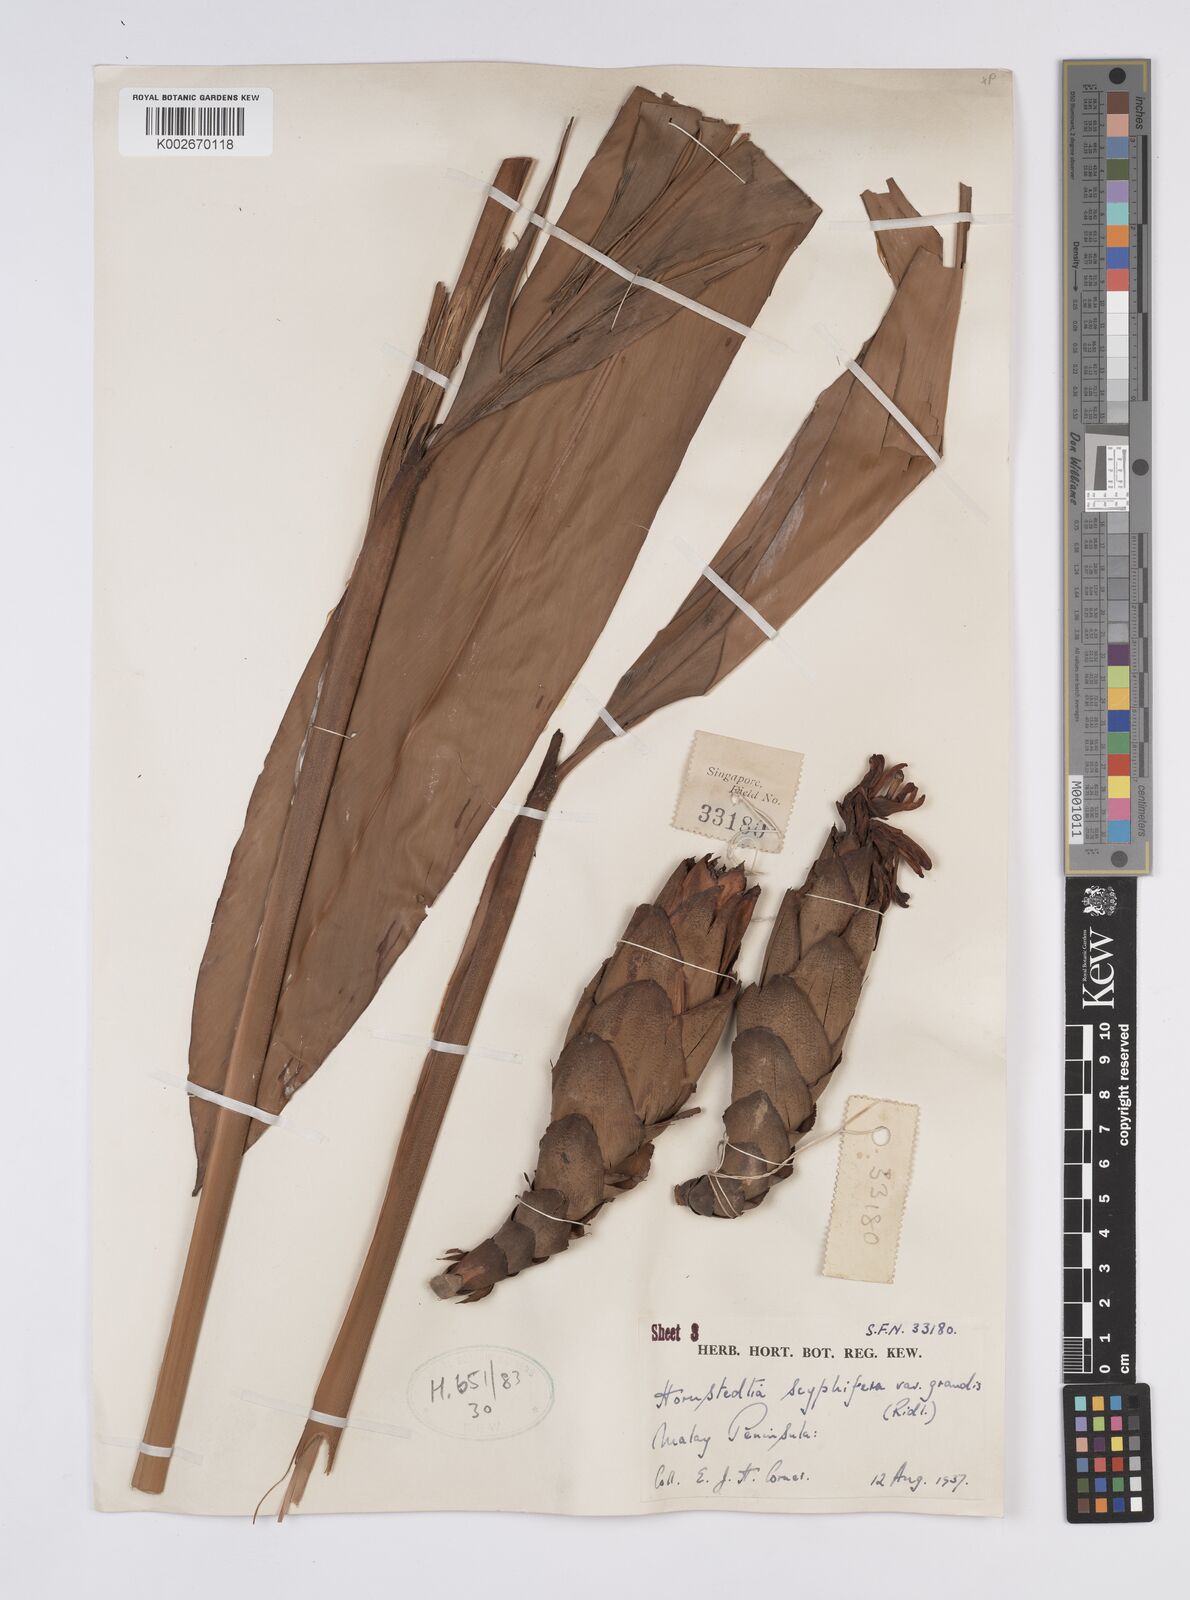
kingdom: Plantae
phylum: Tracheophyta
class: Liliopsida
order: Zingiberales
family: Zingiberaceae
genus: Hornstedtia
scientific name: Hornstedtia scyphifera
